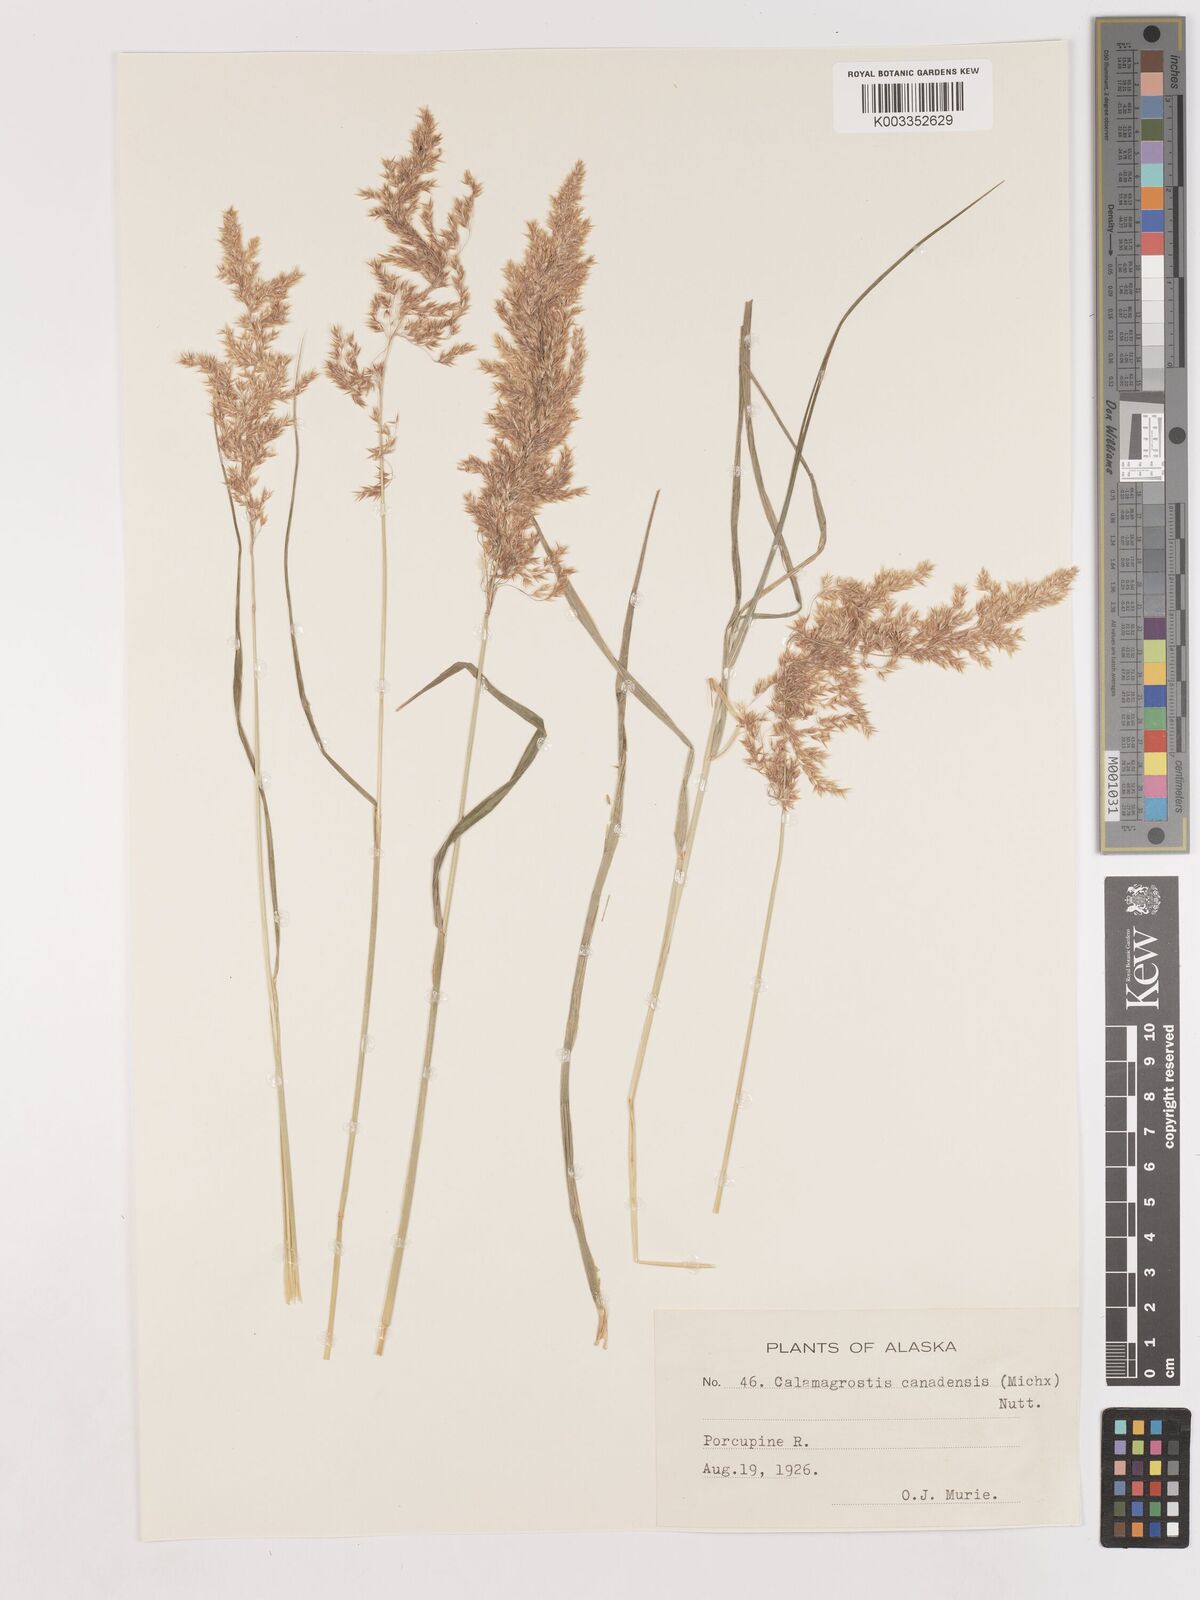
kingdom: Plantae
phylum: Tracheophyta
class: Liliopsida
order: Poales
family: Poaceae
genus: Calamagrostis
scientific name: Calamagrostis canadensis
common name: Canada bluejoint
